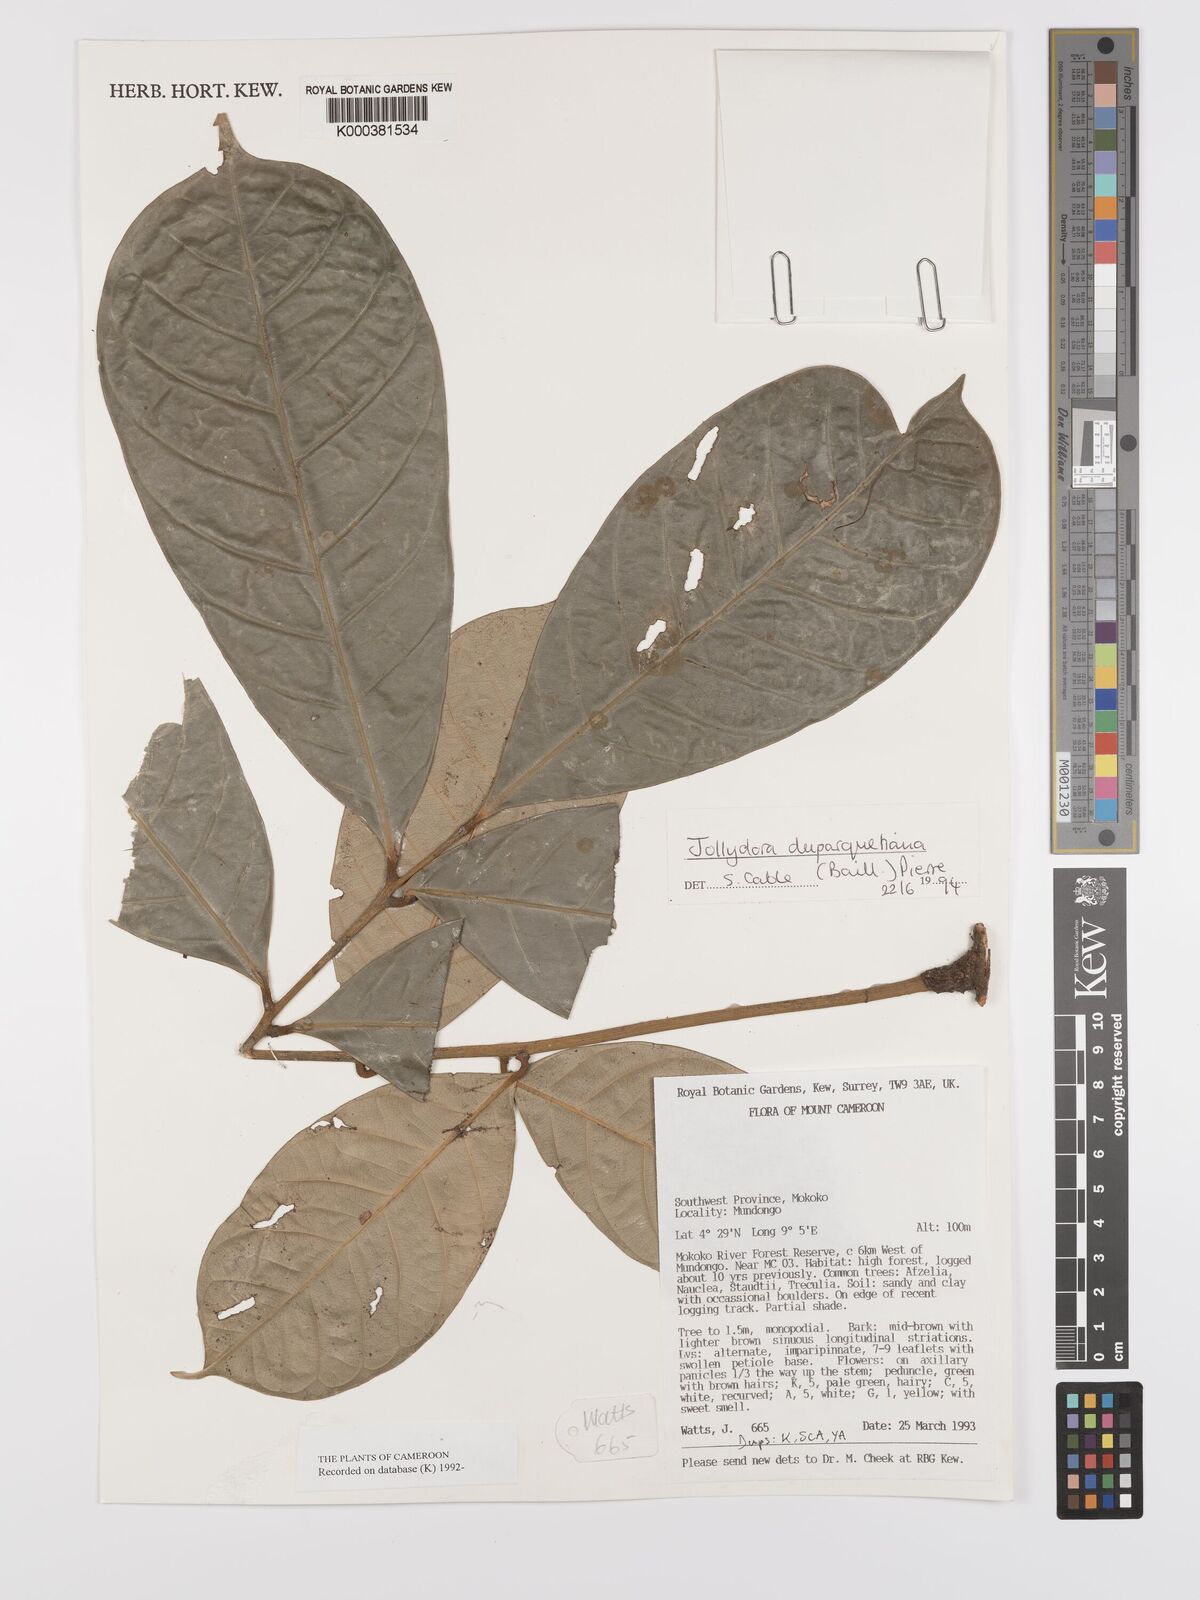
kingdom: Plantae
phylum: Tracheophyta
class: Magnoliopsida
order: Oxalidales
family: Connaraceae
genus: Jollydora
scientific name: Jollydora duparquetiana
